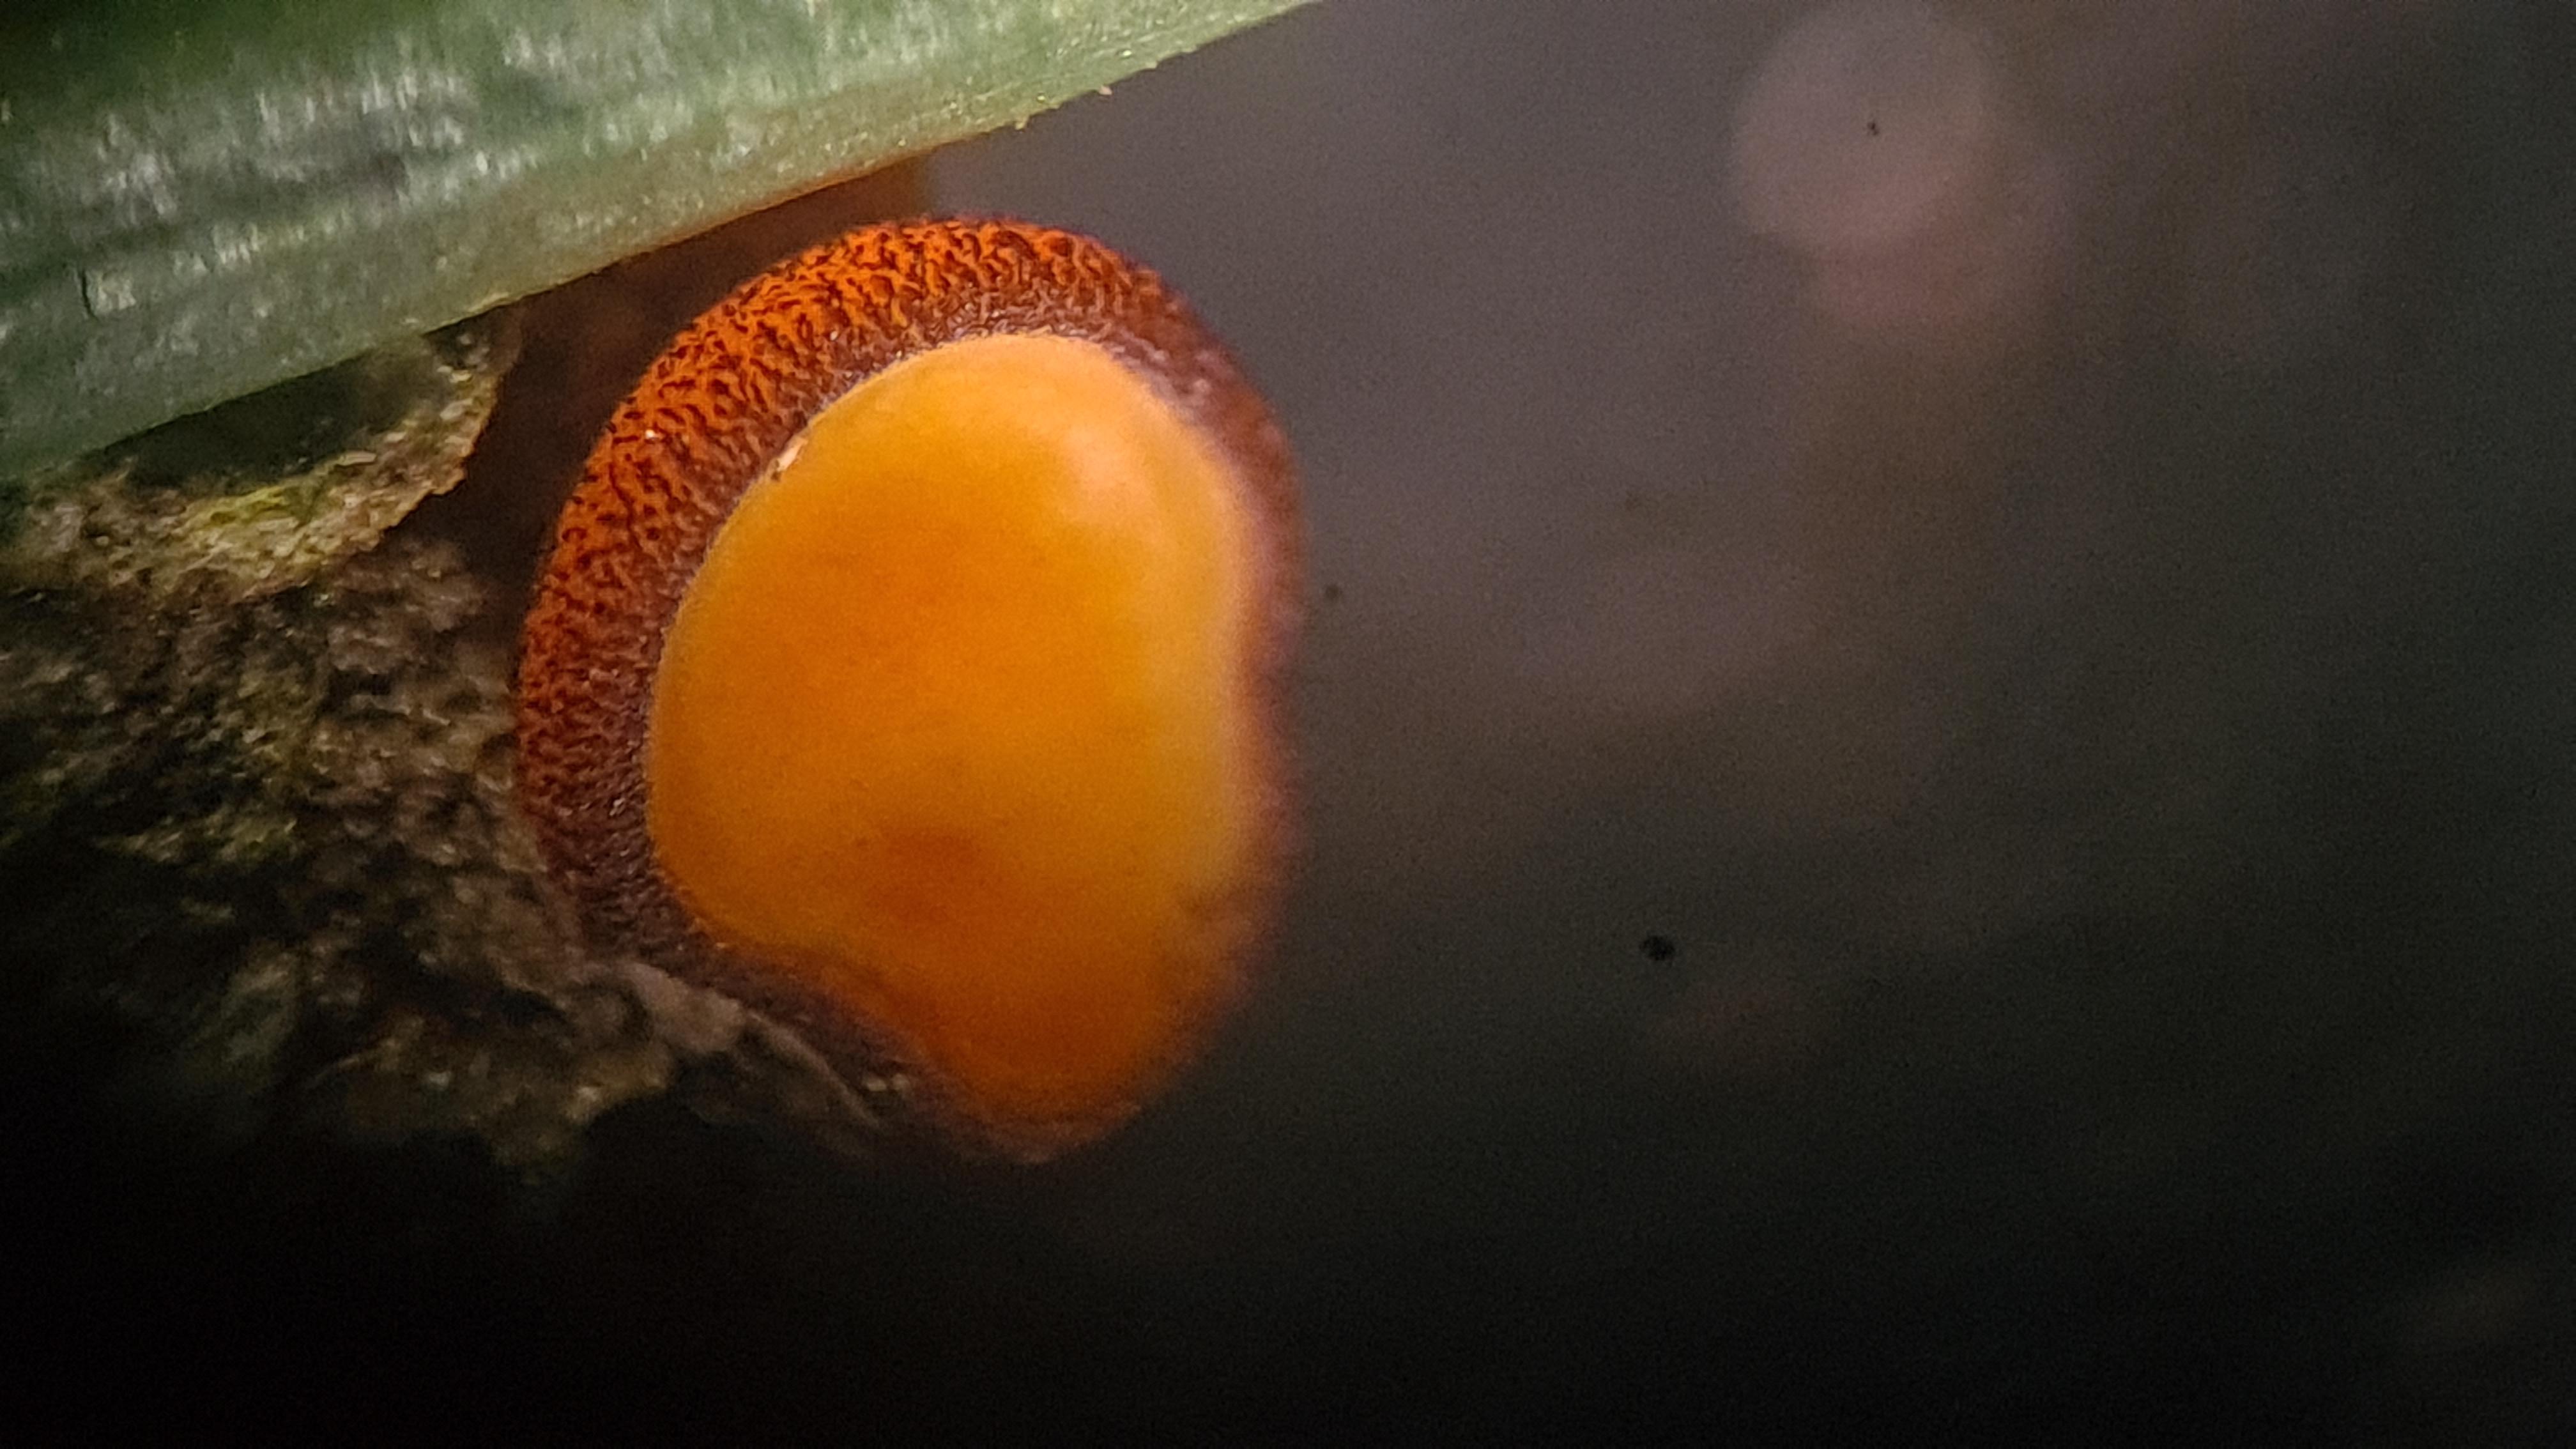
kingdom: Fungi
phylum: Ascomycota
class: Pezizomycetes
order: Pezizales
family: Pyronemataceae
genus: Melastiza
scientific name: Melastiza cornubiensis
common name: mørkrandet rødbæger
